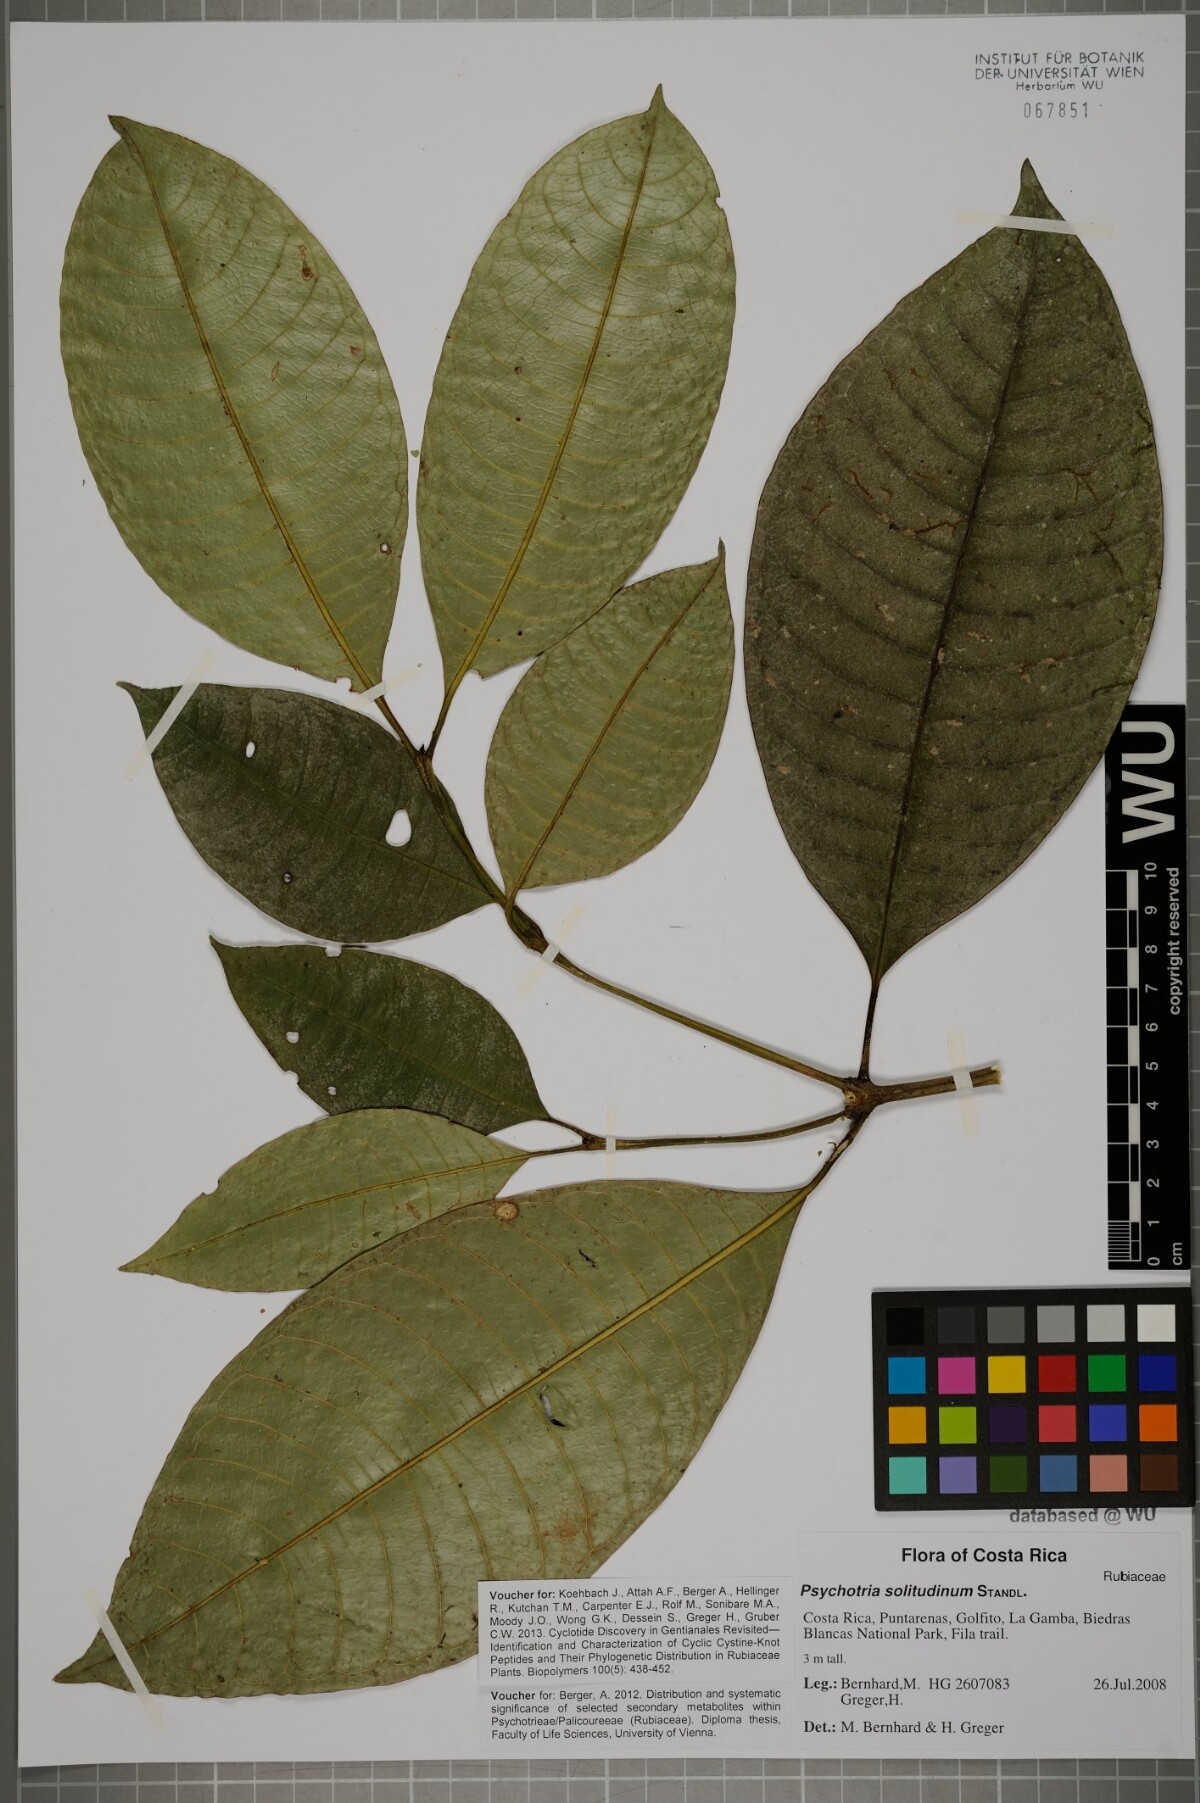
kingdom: Plantae
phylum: Tracheophyta
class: Magnoliopsida
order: Gentianales
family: Rubiaceae
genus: Palicourea
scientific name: Palicourea solitudinum
